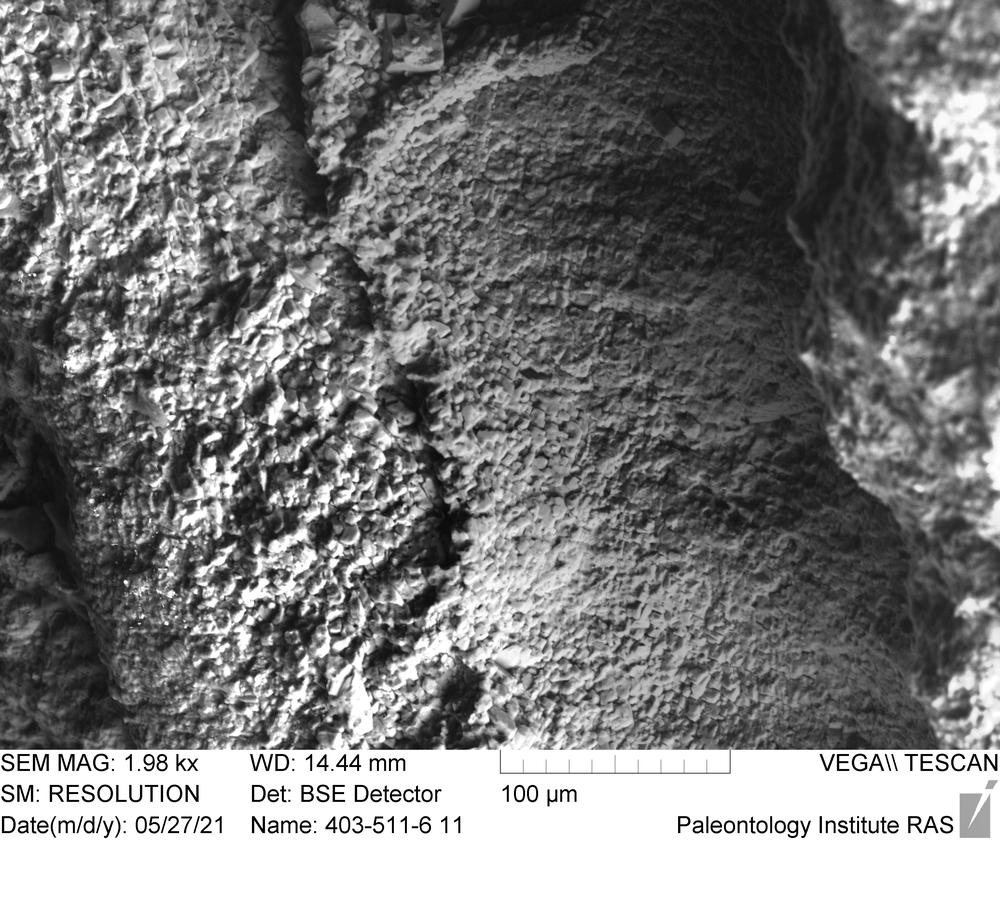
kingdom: Animalia
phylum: Bryozoa
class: Stenolaemata
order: Cyclostomatida
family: Hederellidae
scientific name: Hederellidae
